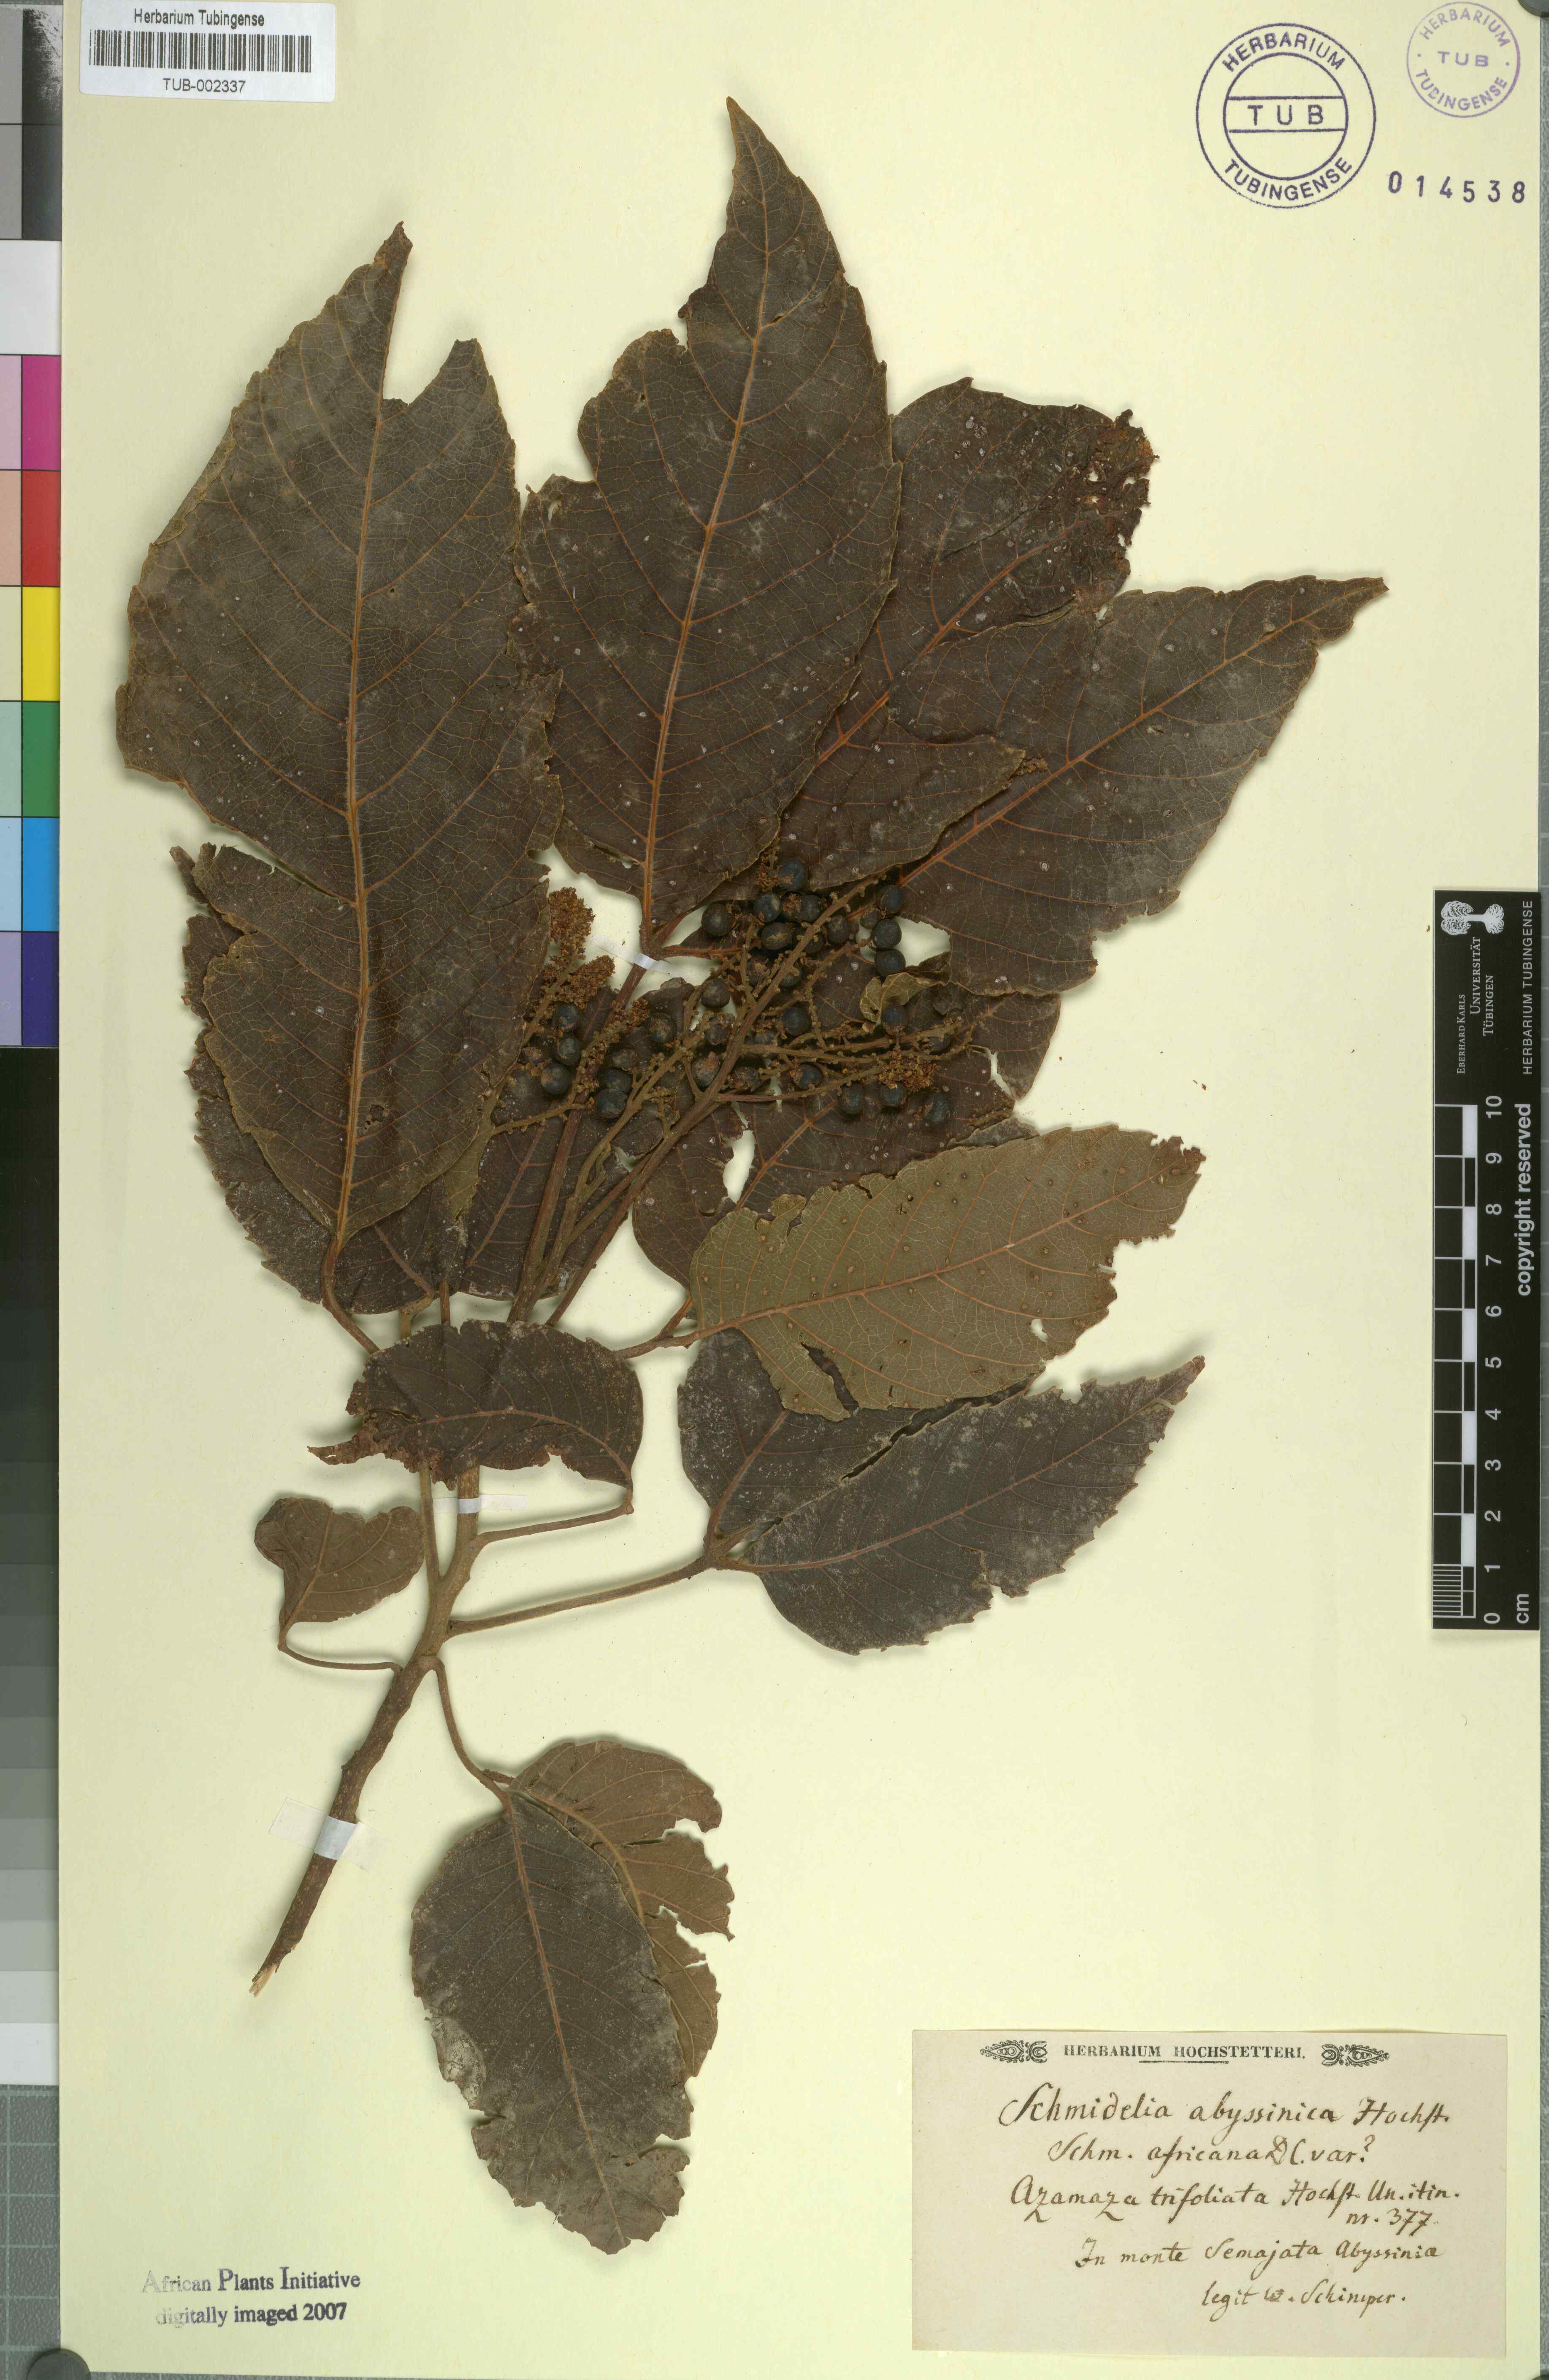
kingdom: Plantae
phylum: Tracheophyta
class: Magnoliopsida
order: Sapindales
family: Sapindaceae
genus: Allophylus
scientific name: Allophylus zeylanicus
